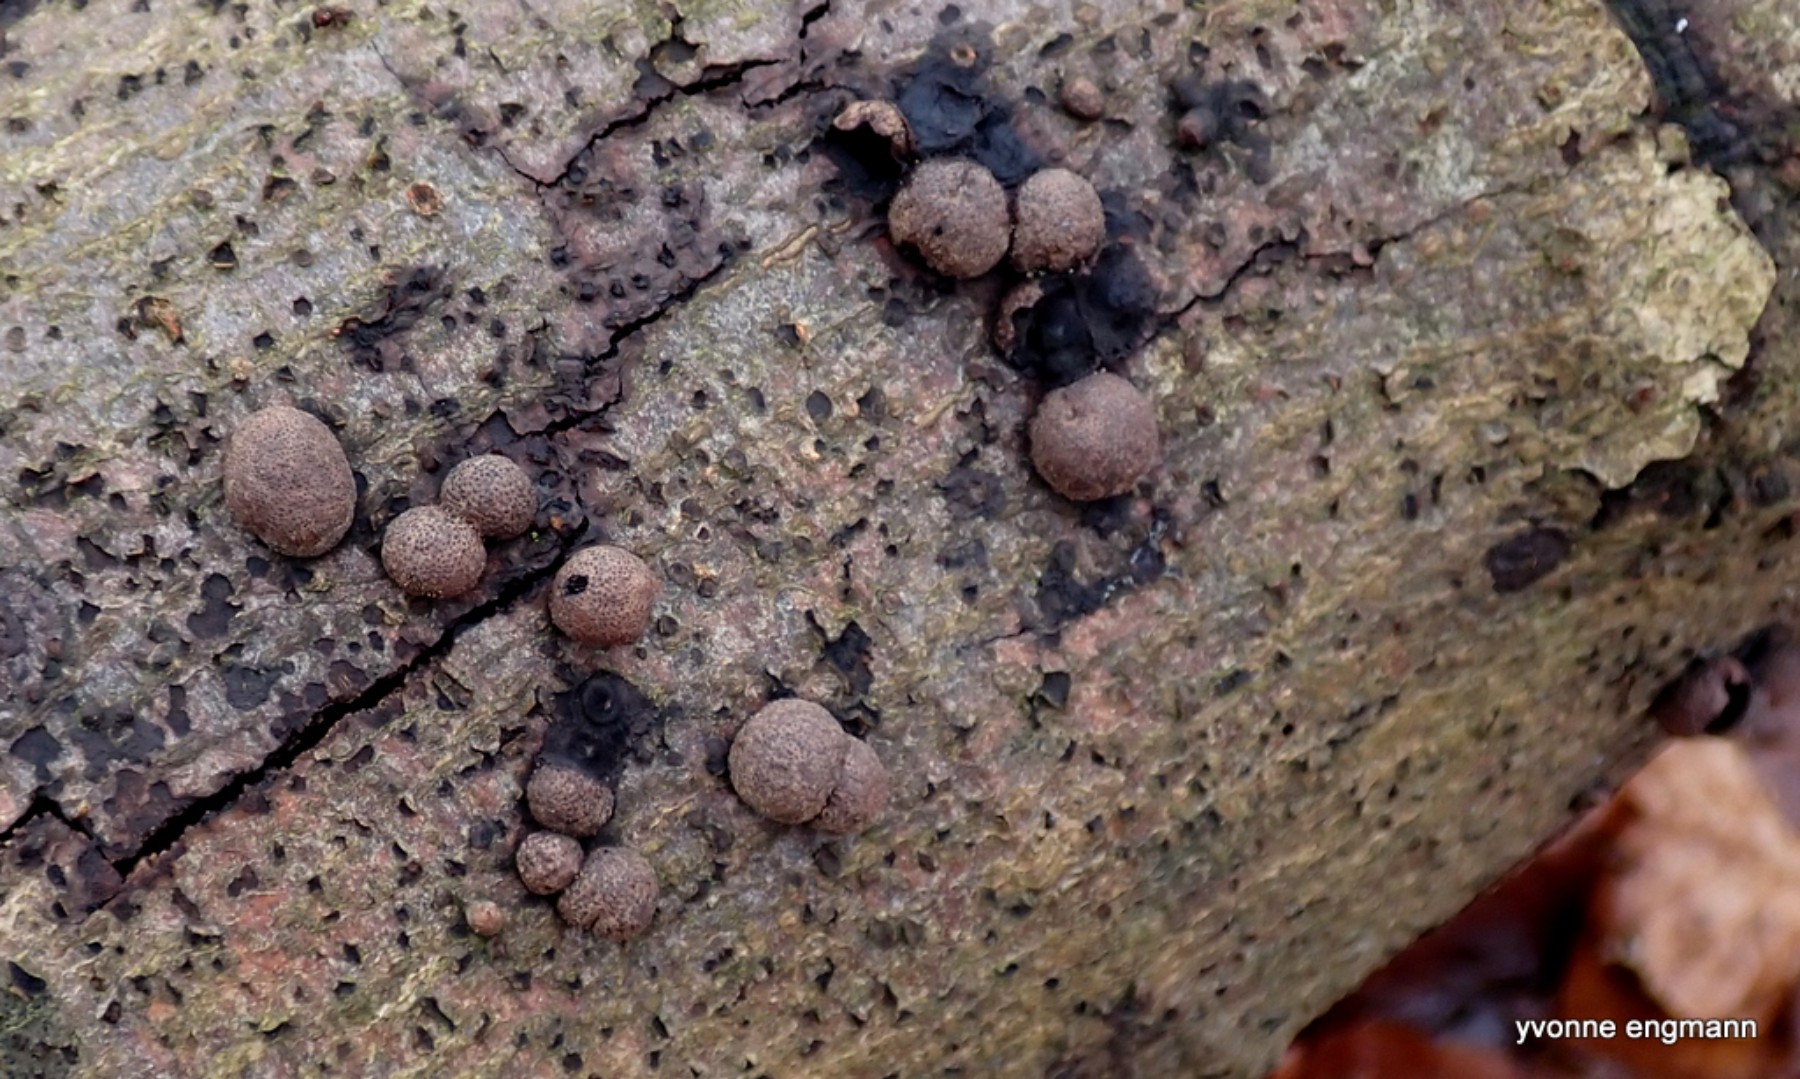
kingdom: Fungi
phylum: Ascomycota
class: Sordariomycetes
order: Xylariales
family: Hypoxylaceae
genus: Hypoxylon
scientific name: Hypoxylon fragiforme
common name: kuljordbær
